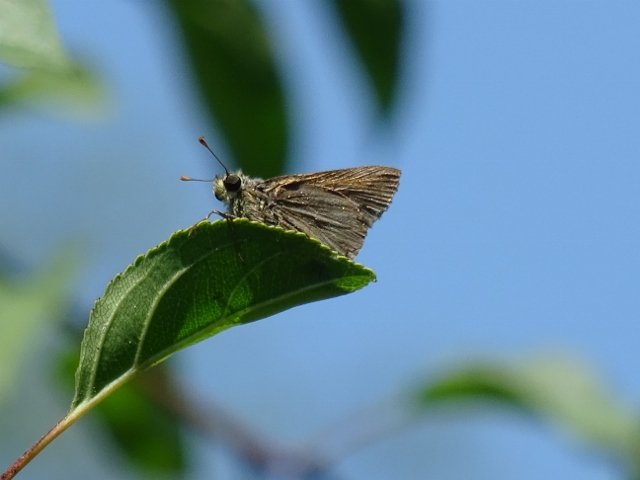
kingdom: Animalia
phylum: Arthropoda
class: Insecta
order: Lepidoptera
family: Hesperiidae
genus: Polites
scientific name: Polites egeremet
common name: Northern Broken-Dash
